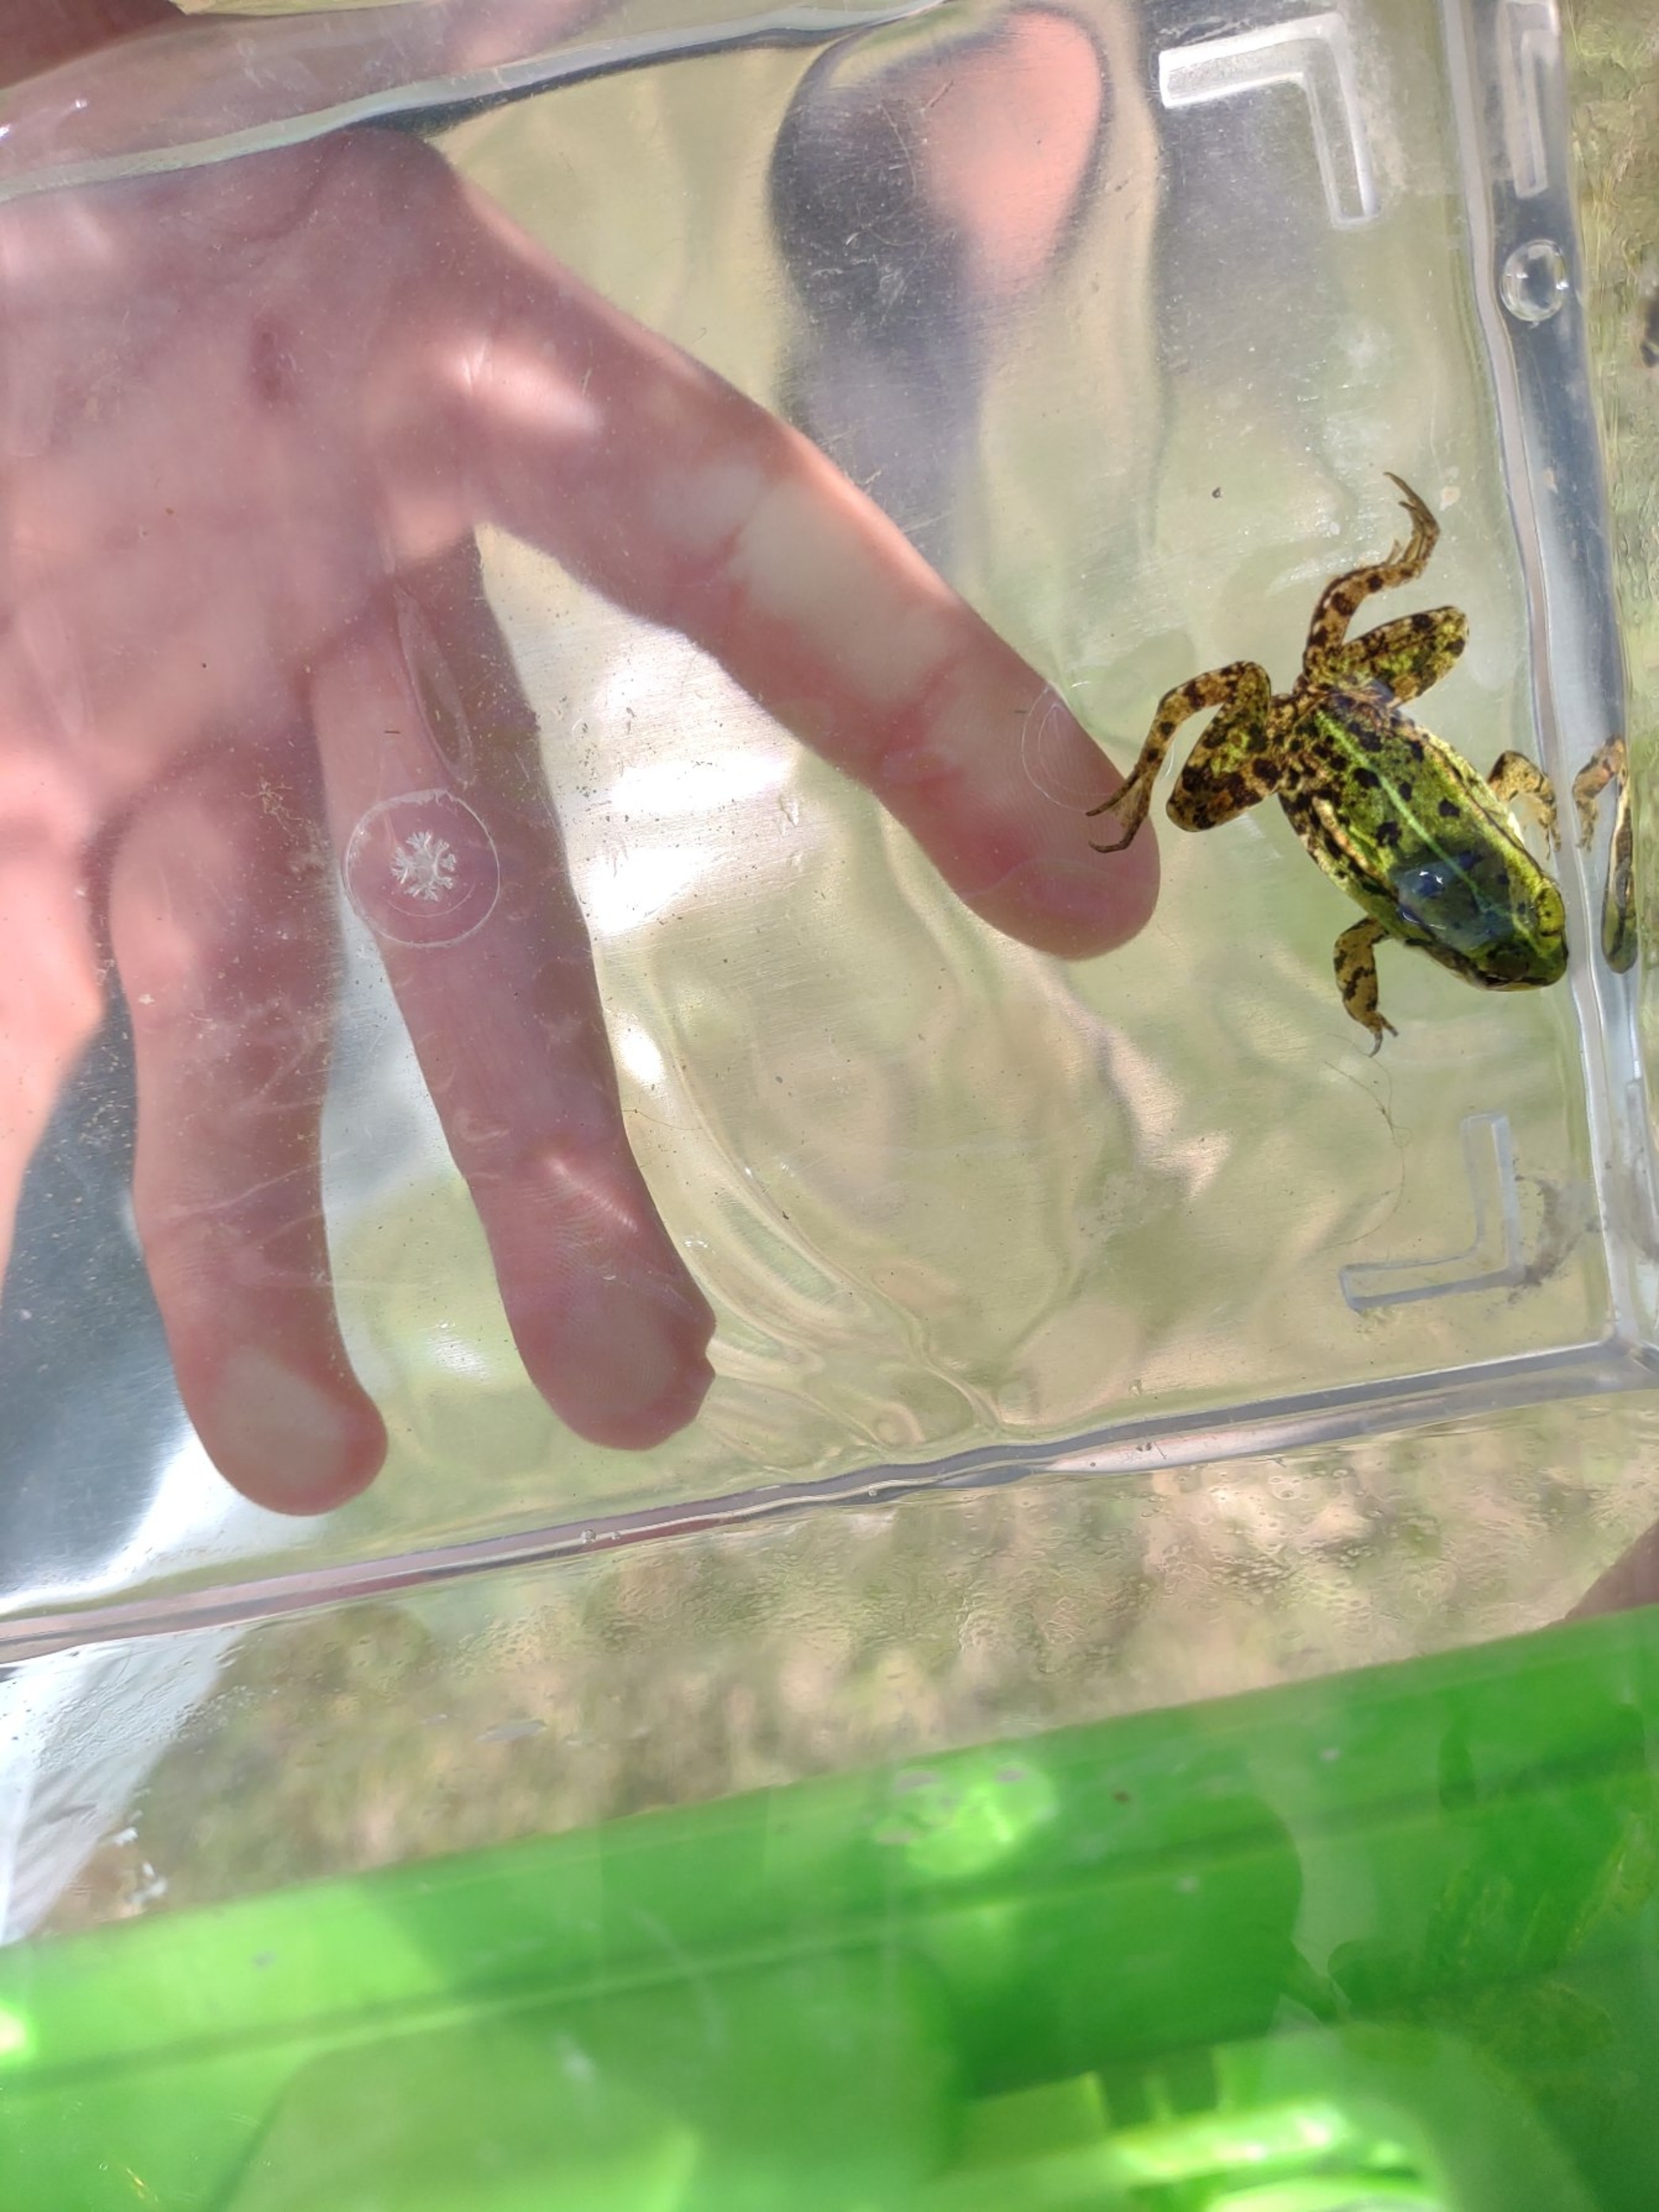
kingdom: Animalia
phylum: Chordata
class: Amphibia
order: Anura
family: Ranidae
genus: Pelophylax
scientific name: Pelophylax lessonae
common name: Grøn frø
